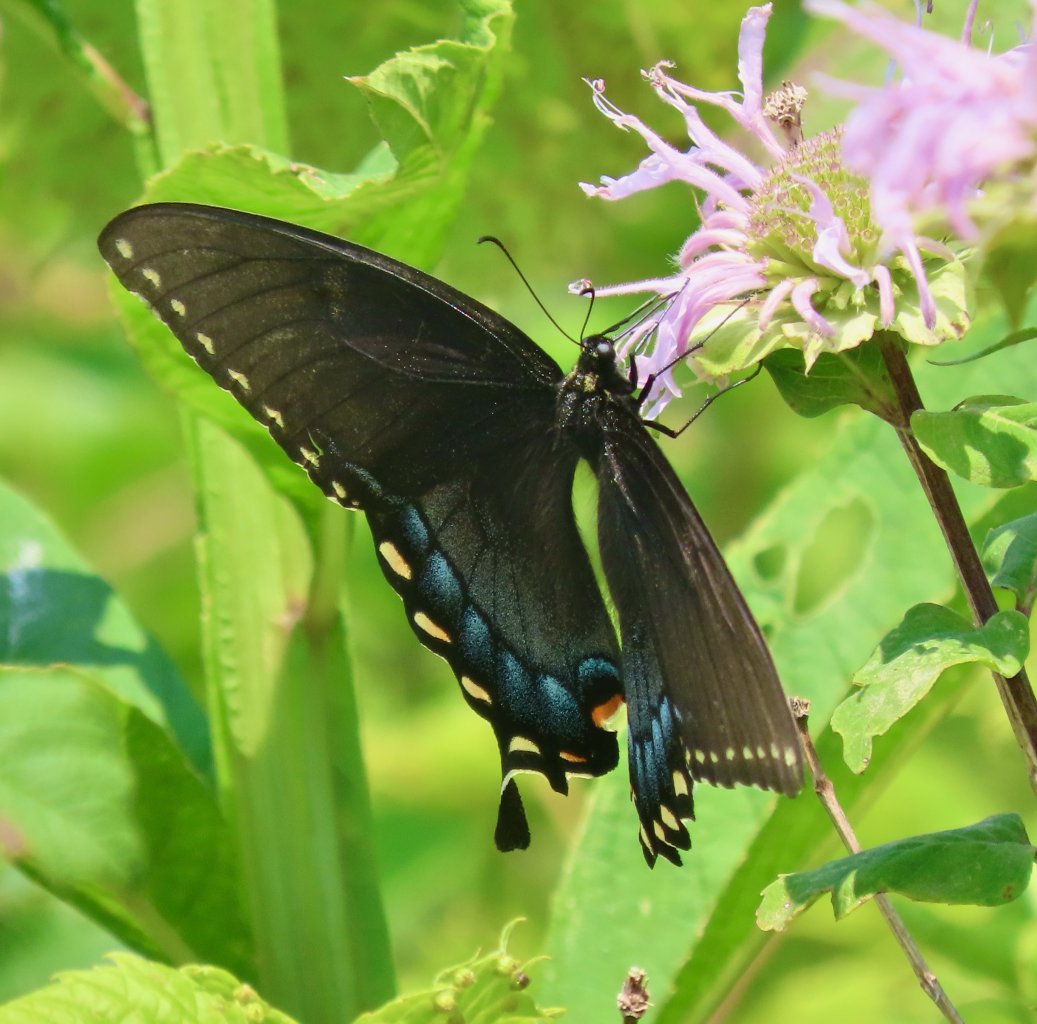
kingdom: Animalia
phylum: Arthropoda
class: Insecta
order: Lepidoptera
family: Papilionidae
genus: Pterourus
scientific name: Pterourus glaucus
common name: Eastern Tiger Swallowtail
